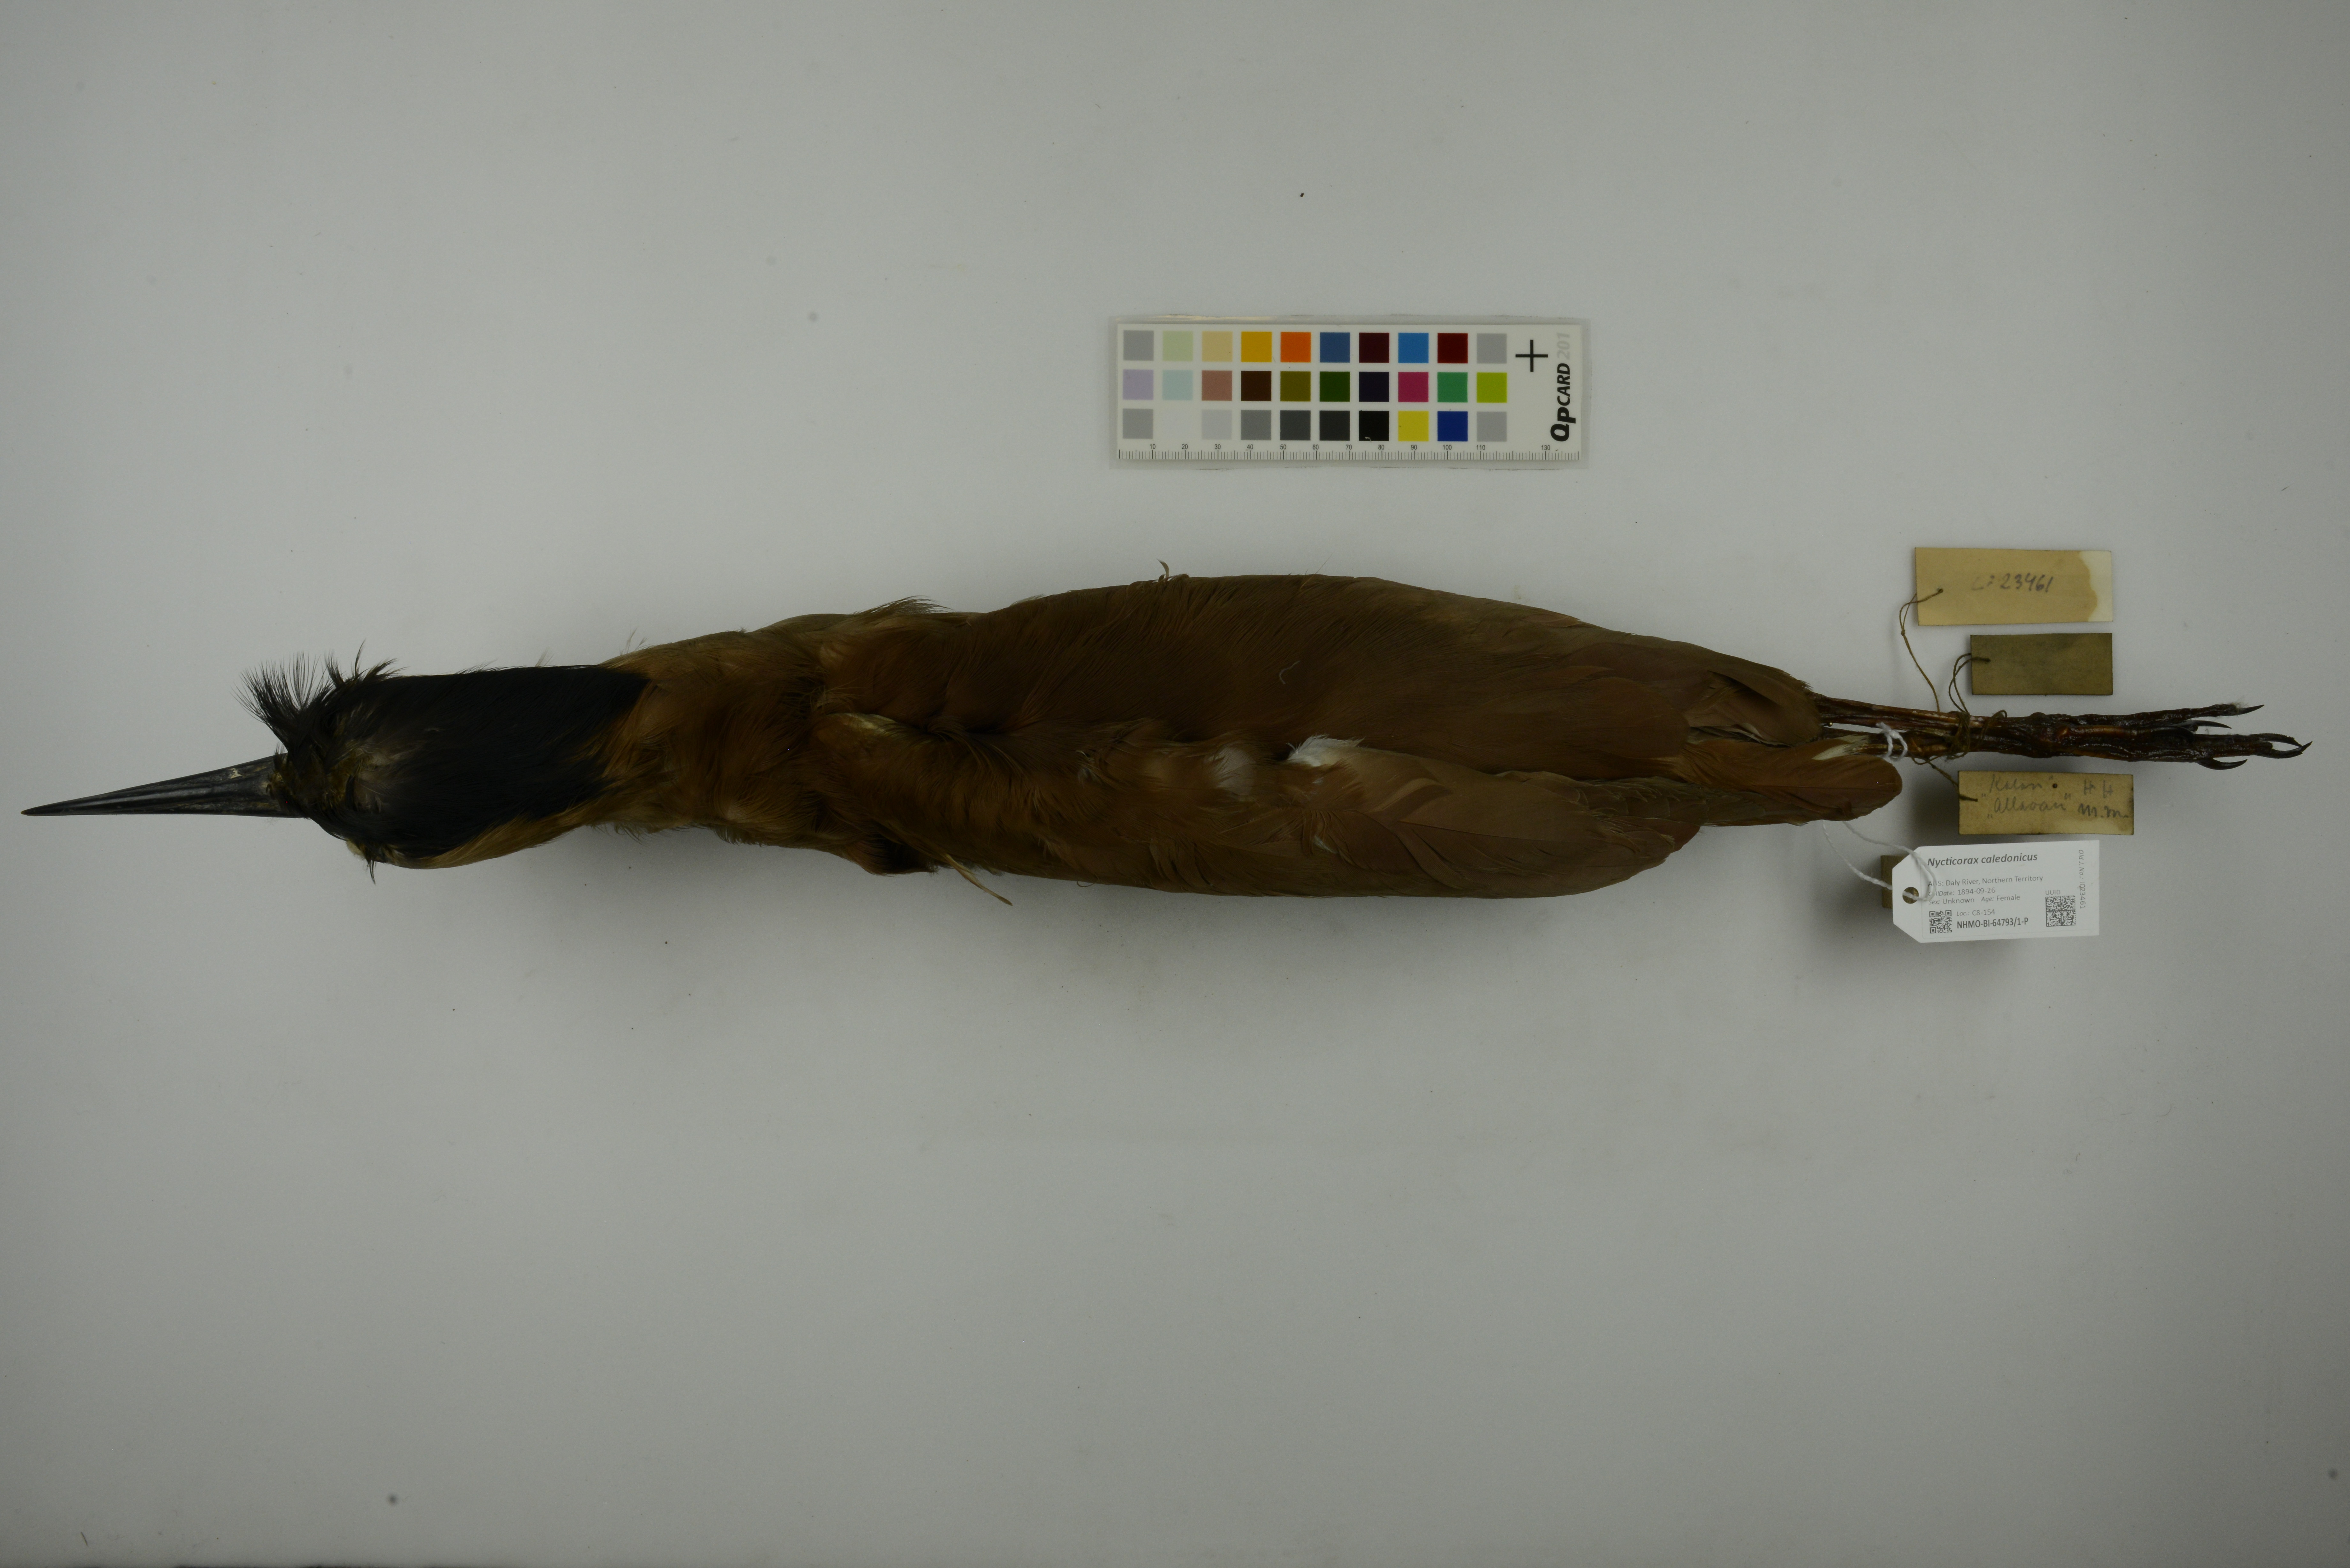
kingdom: Animalia
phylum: Chordata
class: Aves
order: Pelecaniformes
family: Ardeidae
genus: Nycticorax
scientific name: Nycticorax caledonicus
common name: Rufous night-heron
